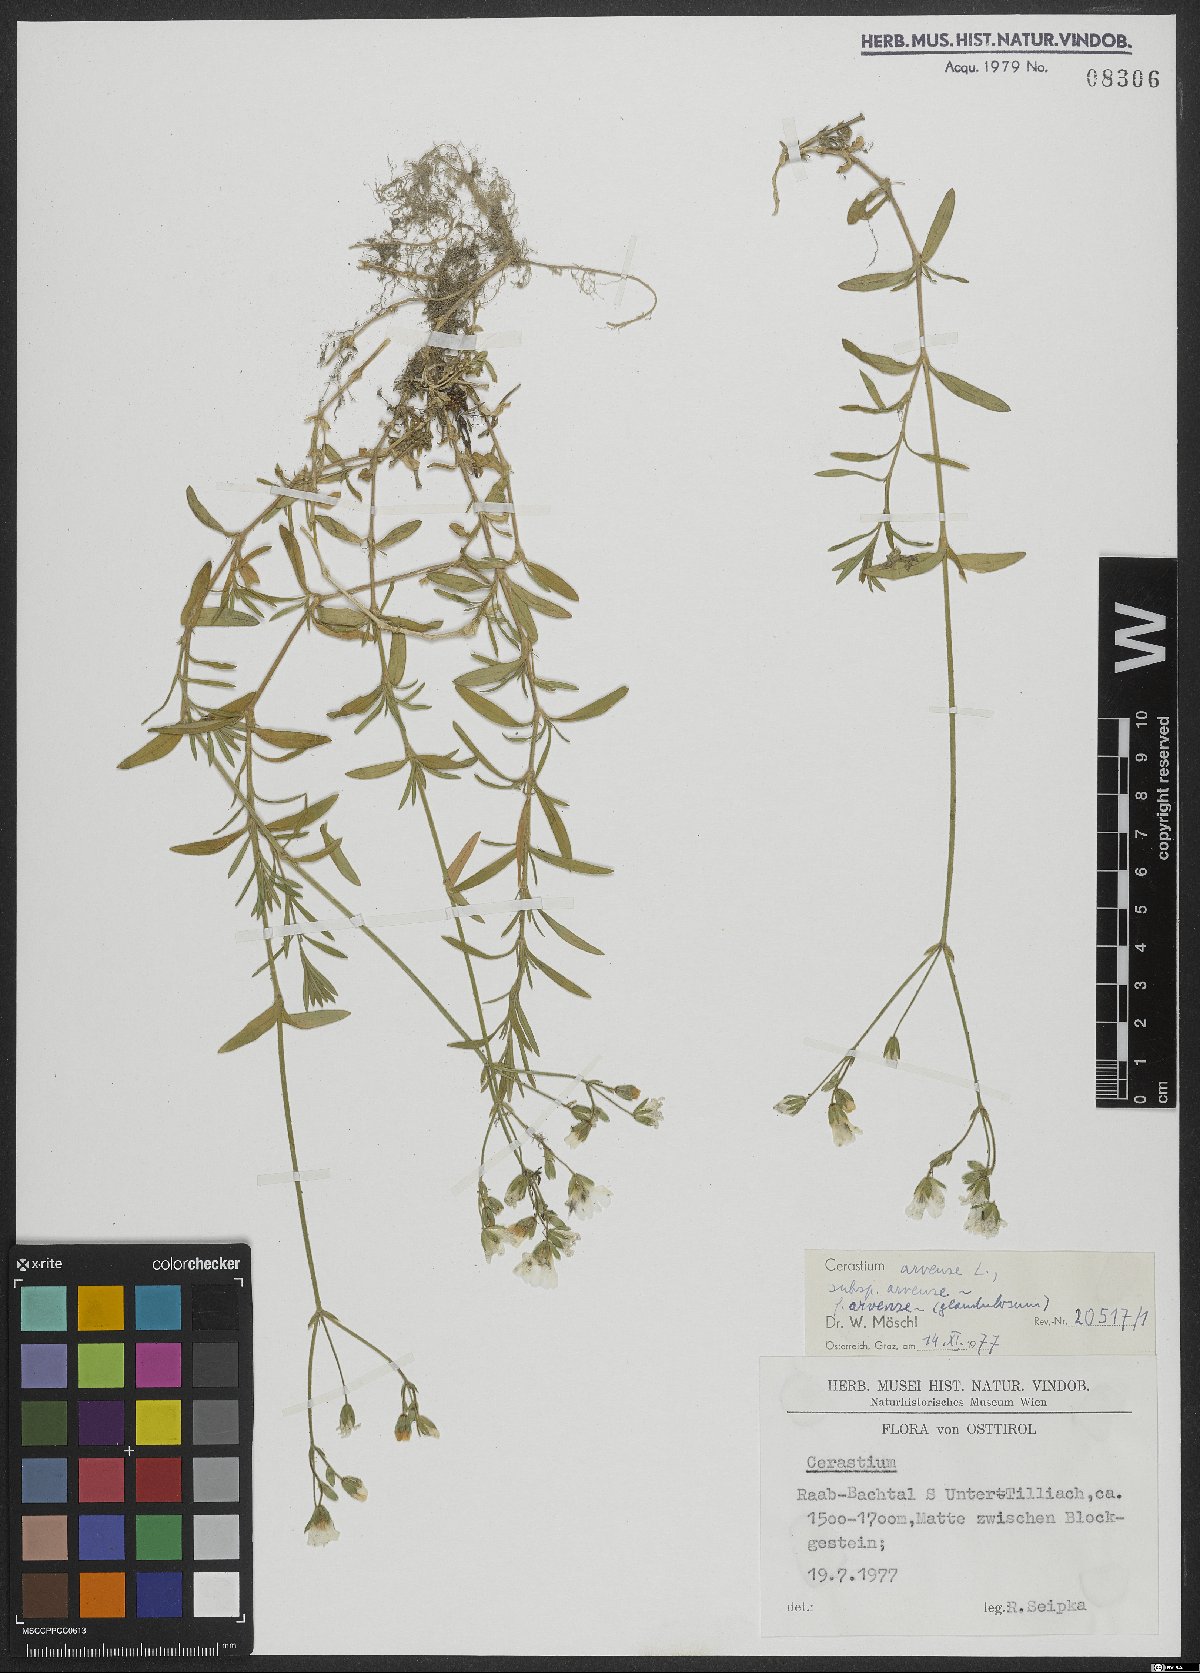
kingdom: Plantae
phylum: Tracheophyta
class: Magnoliopsida
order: Caryophyllales
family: Caryophyllaceae
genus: Cerastium
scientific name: Cerastium arvense
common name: Field mouse-ear
